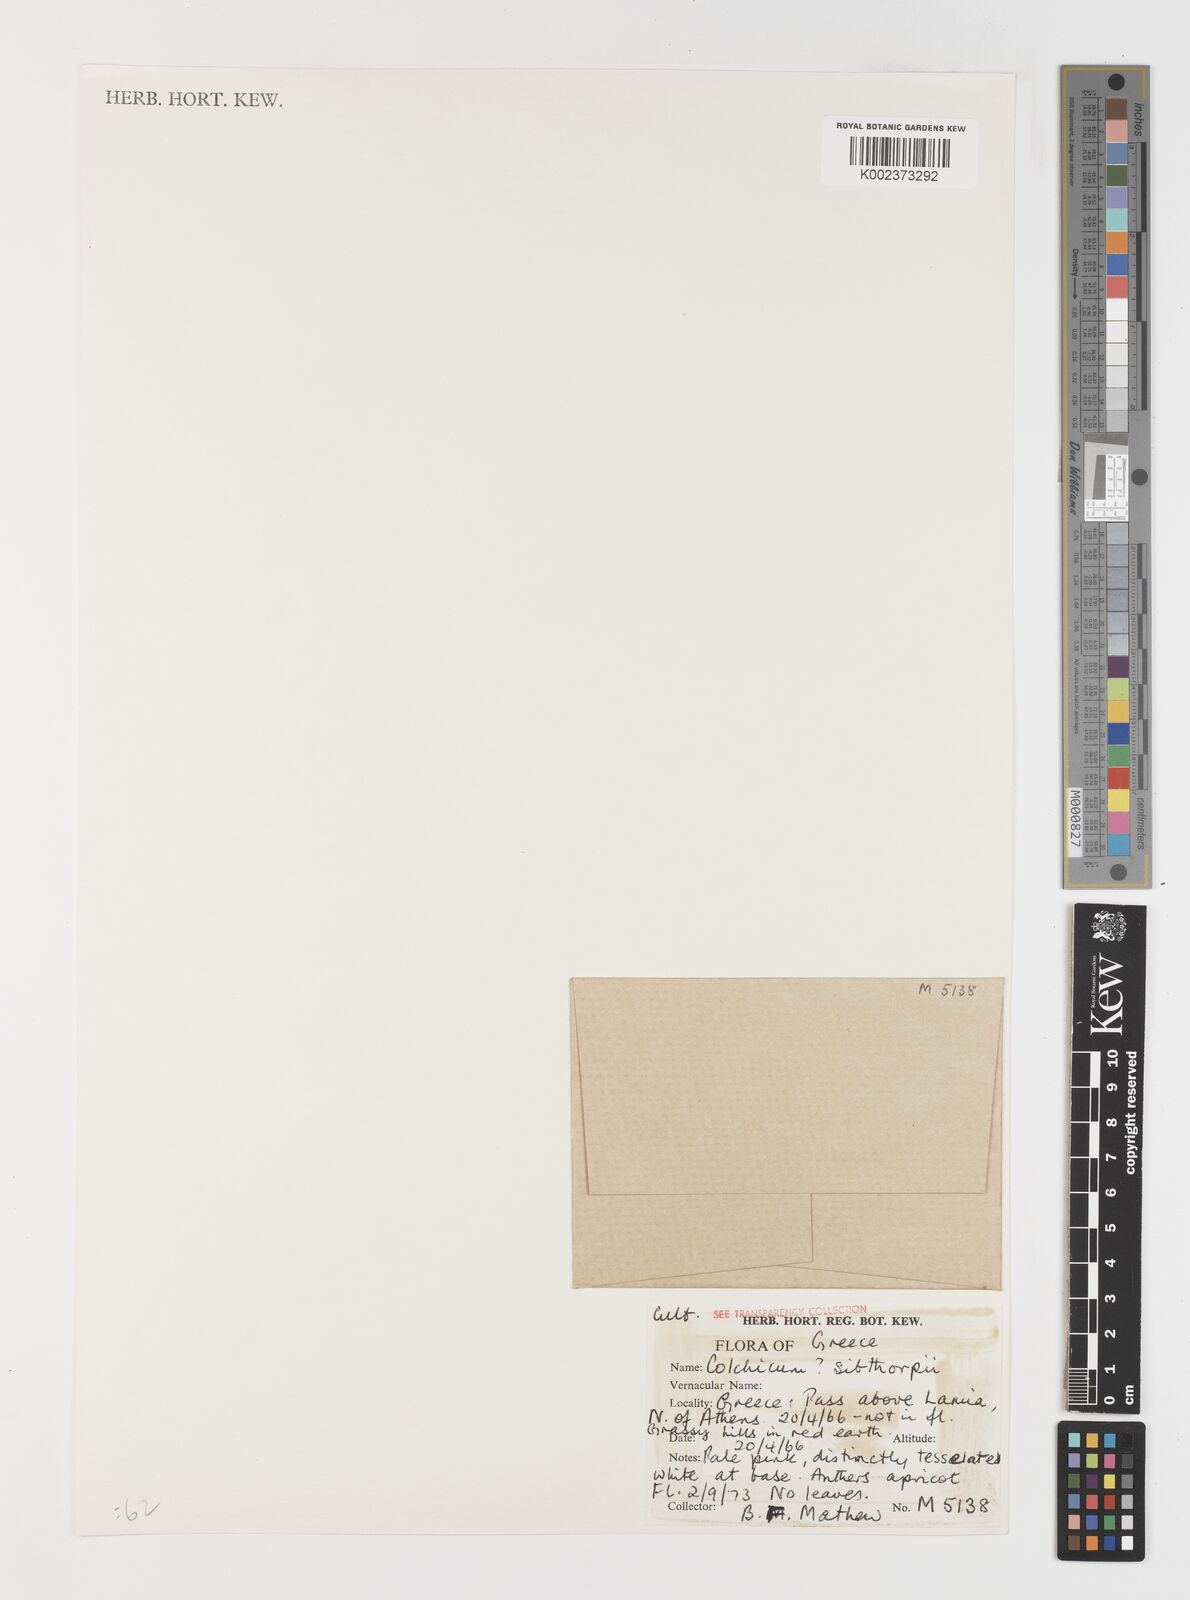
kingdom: Plantae
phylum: Tracheophyta
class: Liliopsida
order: Liliales
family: Colchicaceae
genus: Colchicum
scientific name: Colchicum bivonae
